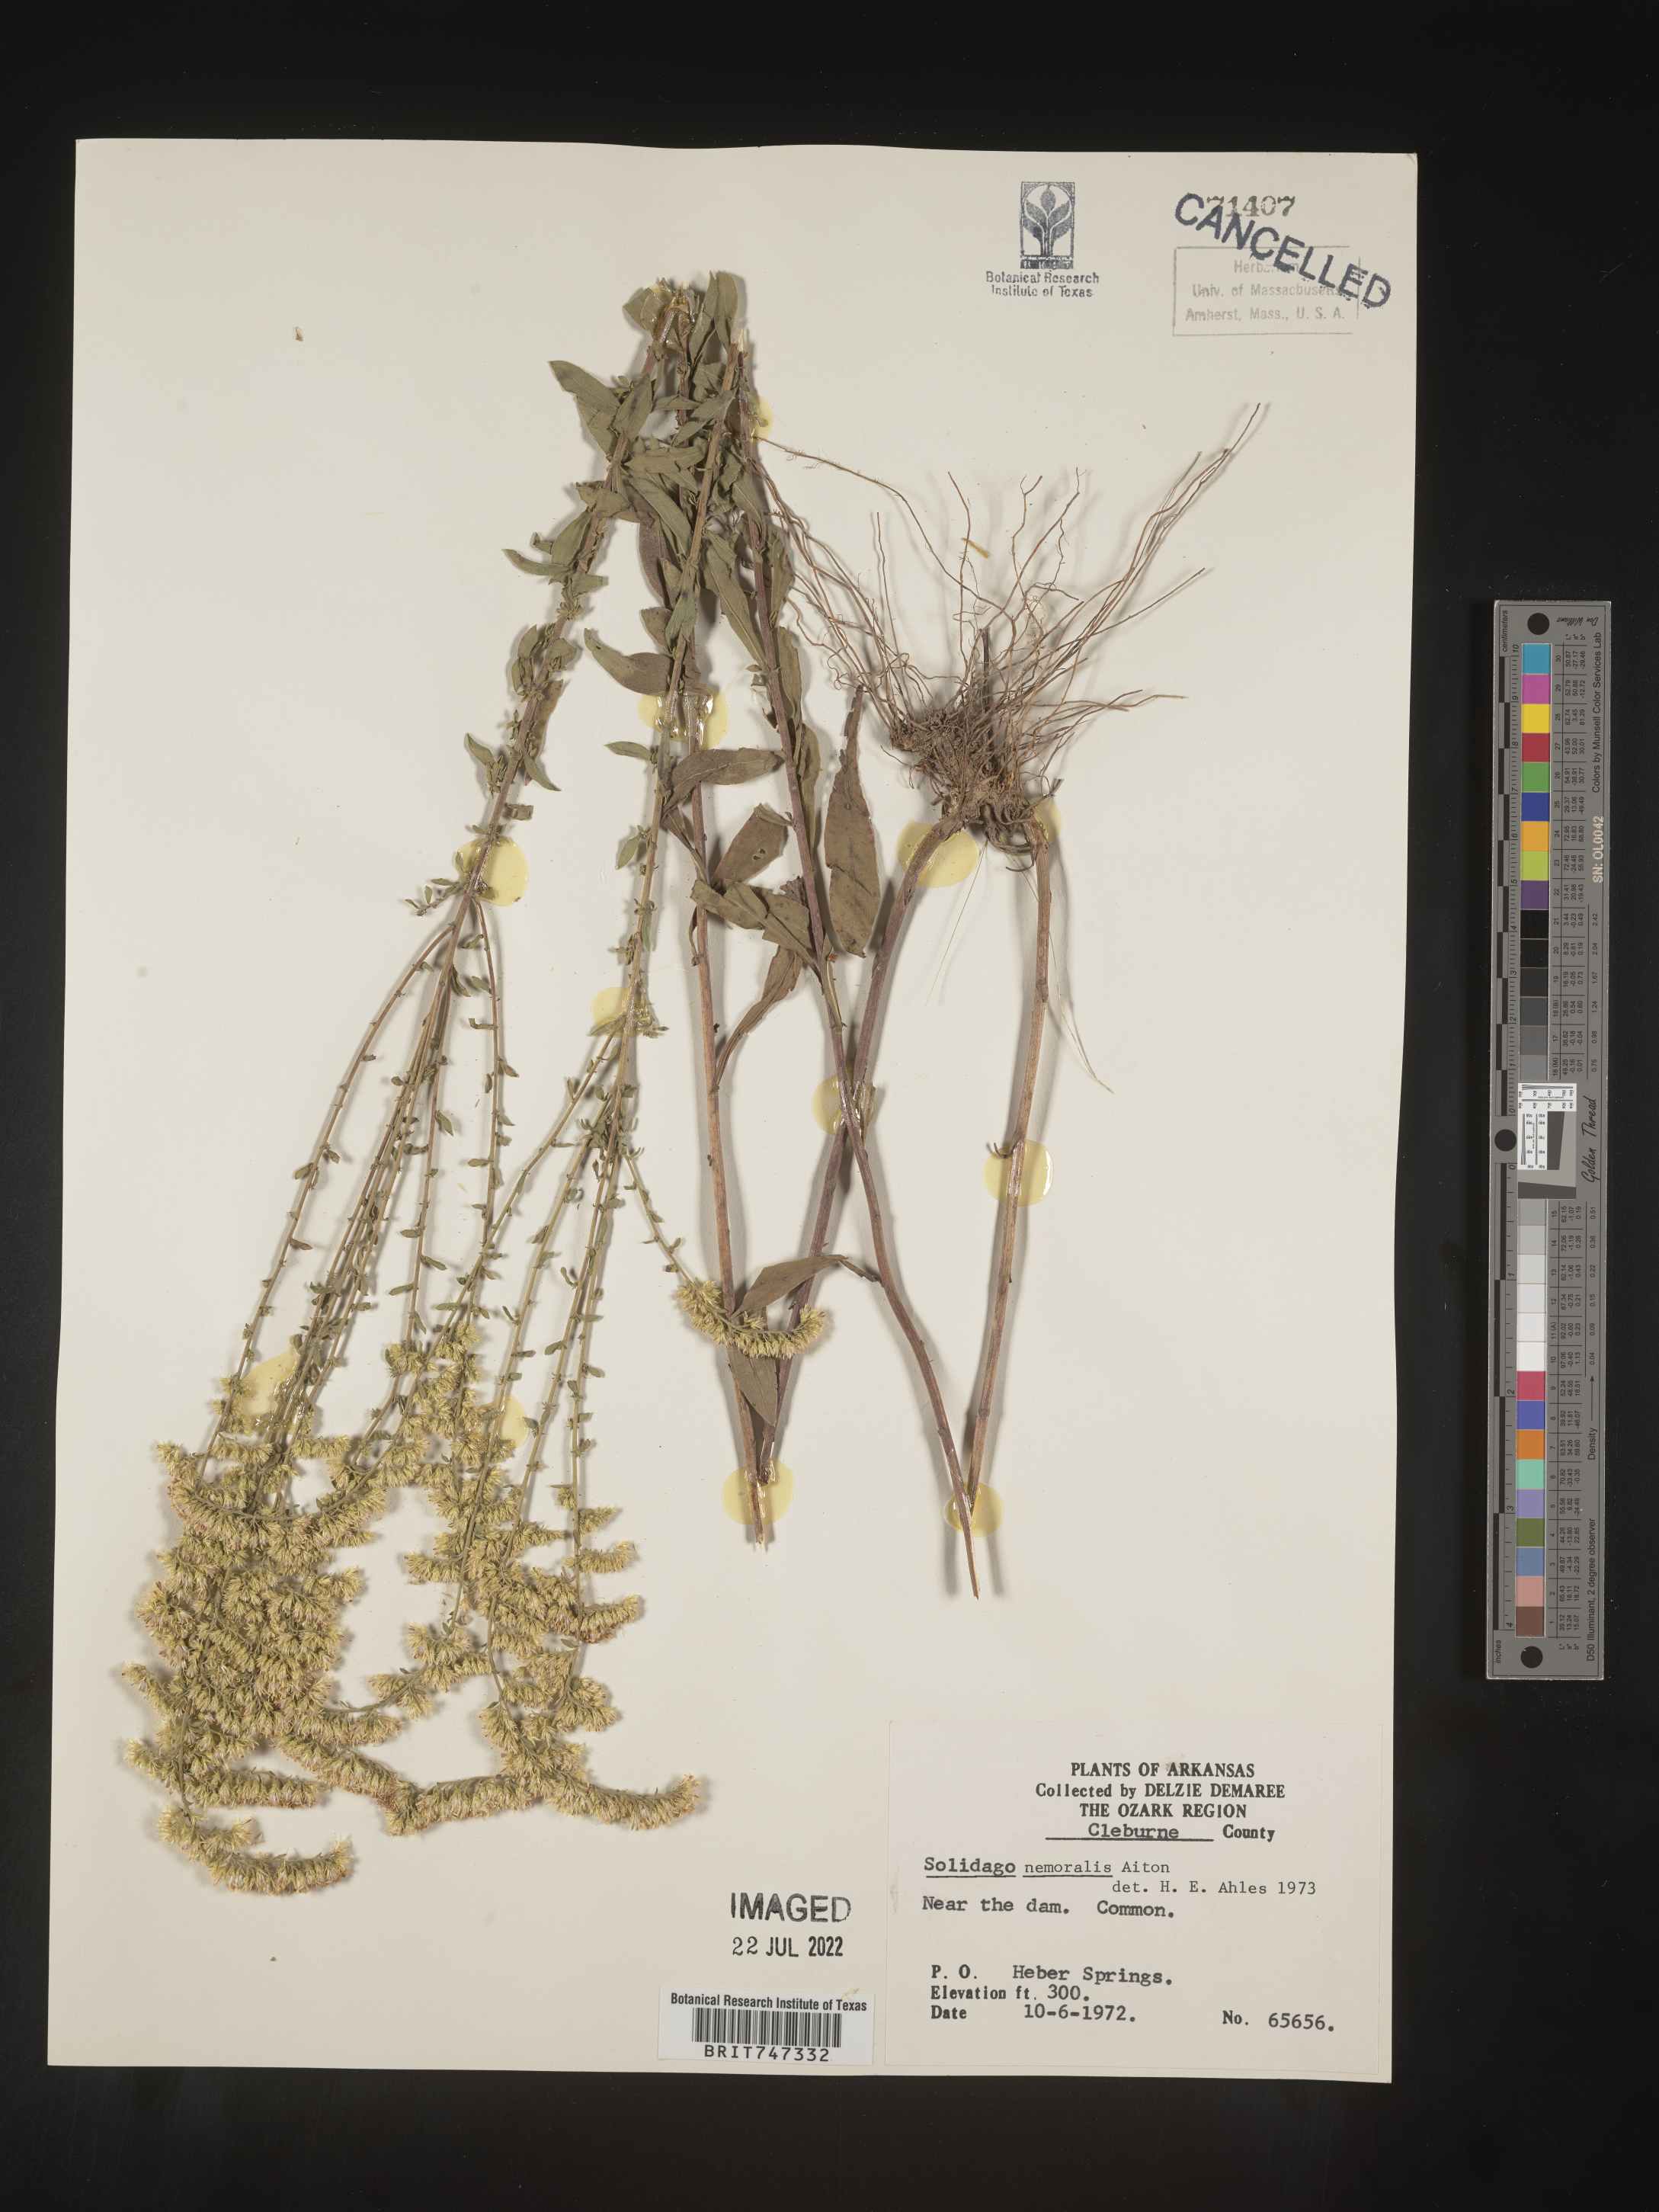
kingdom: Plantae
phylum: Tracheophyta
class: Magnoliopsida
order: Asterales
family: Asteraceae
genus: Solidago
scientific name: Solidago nemoralis
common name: Grey goldenrod
